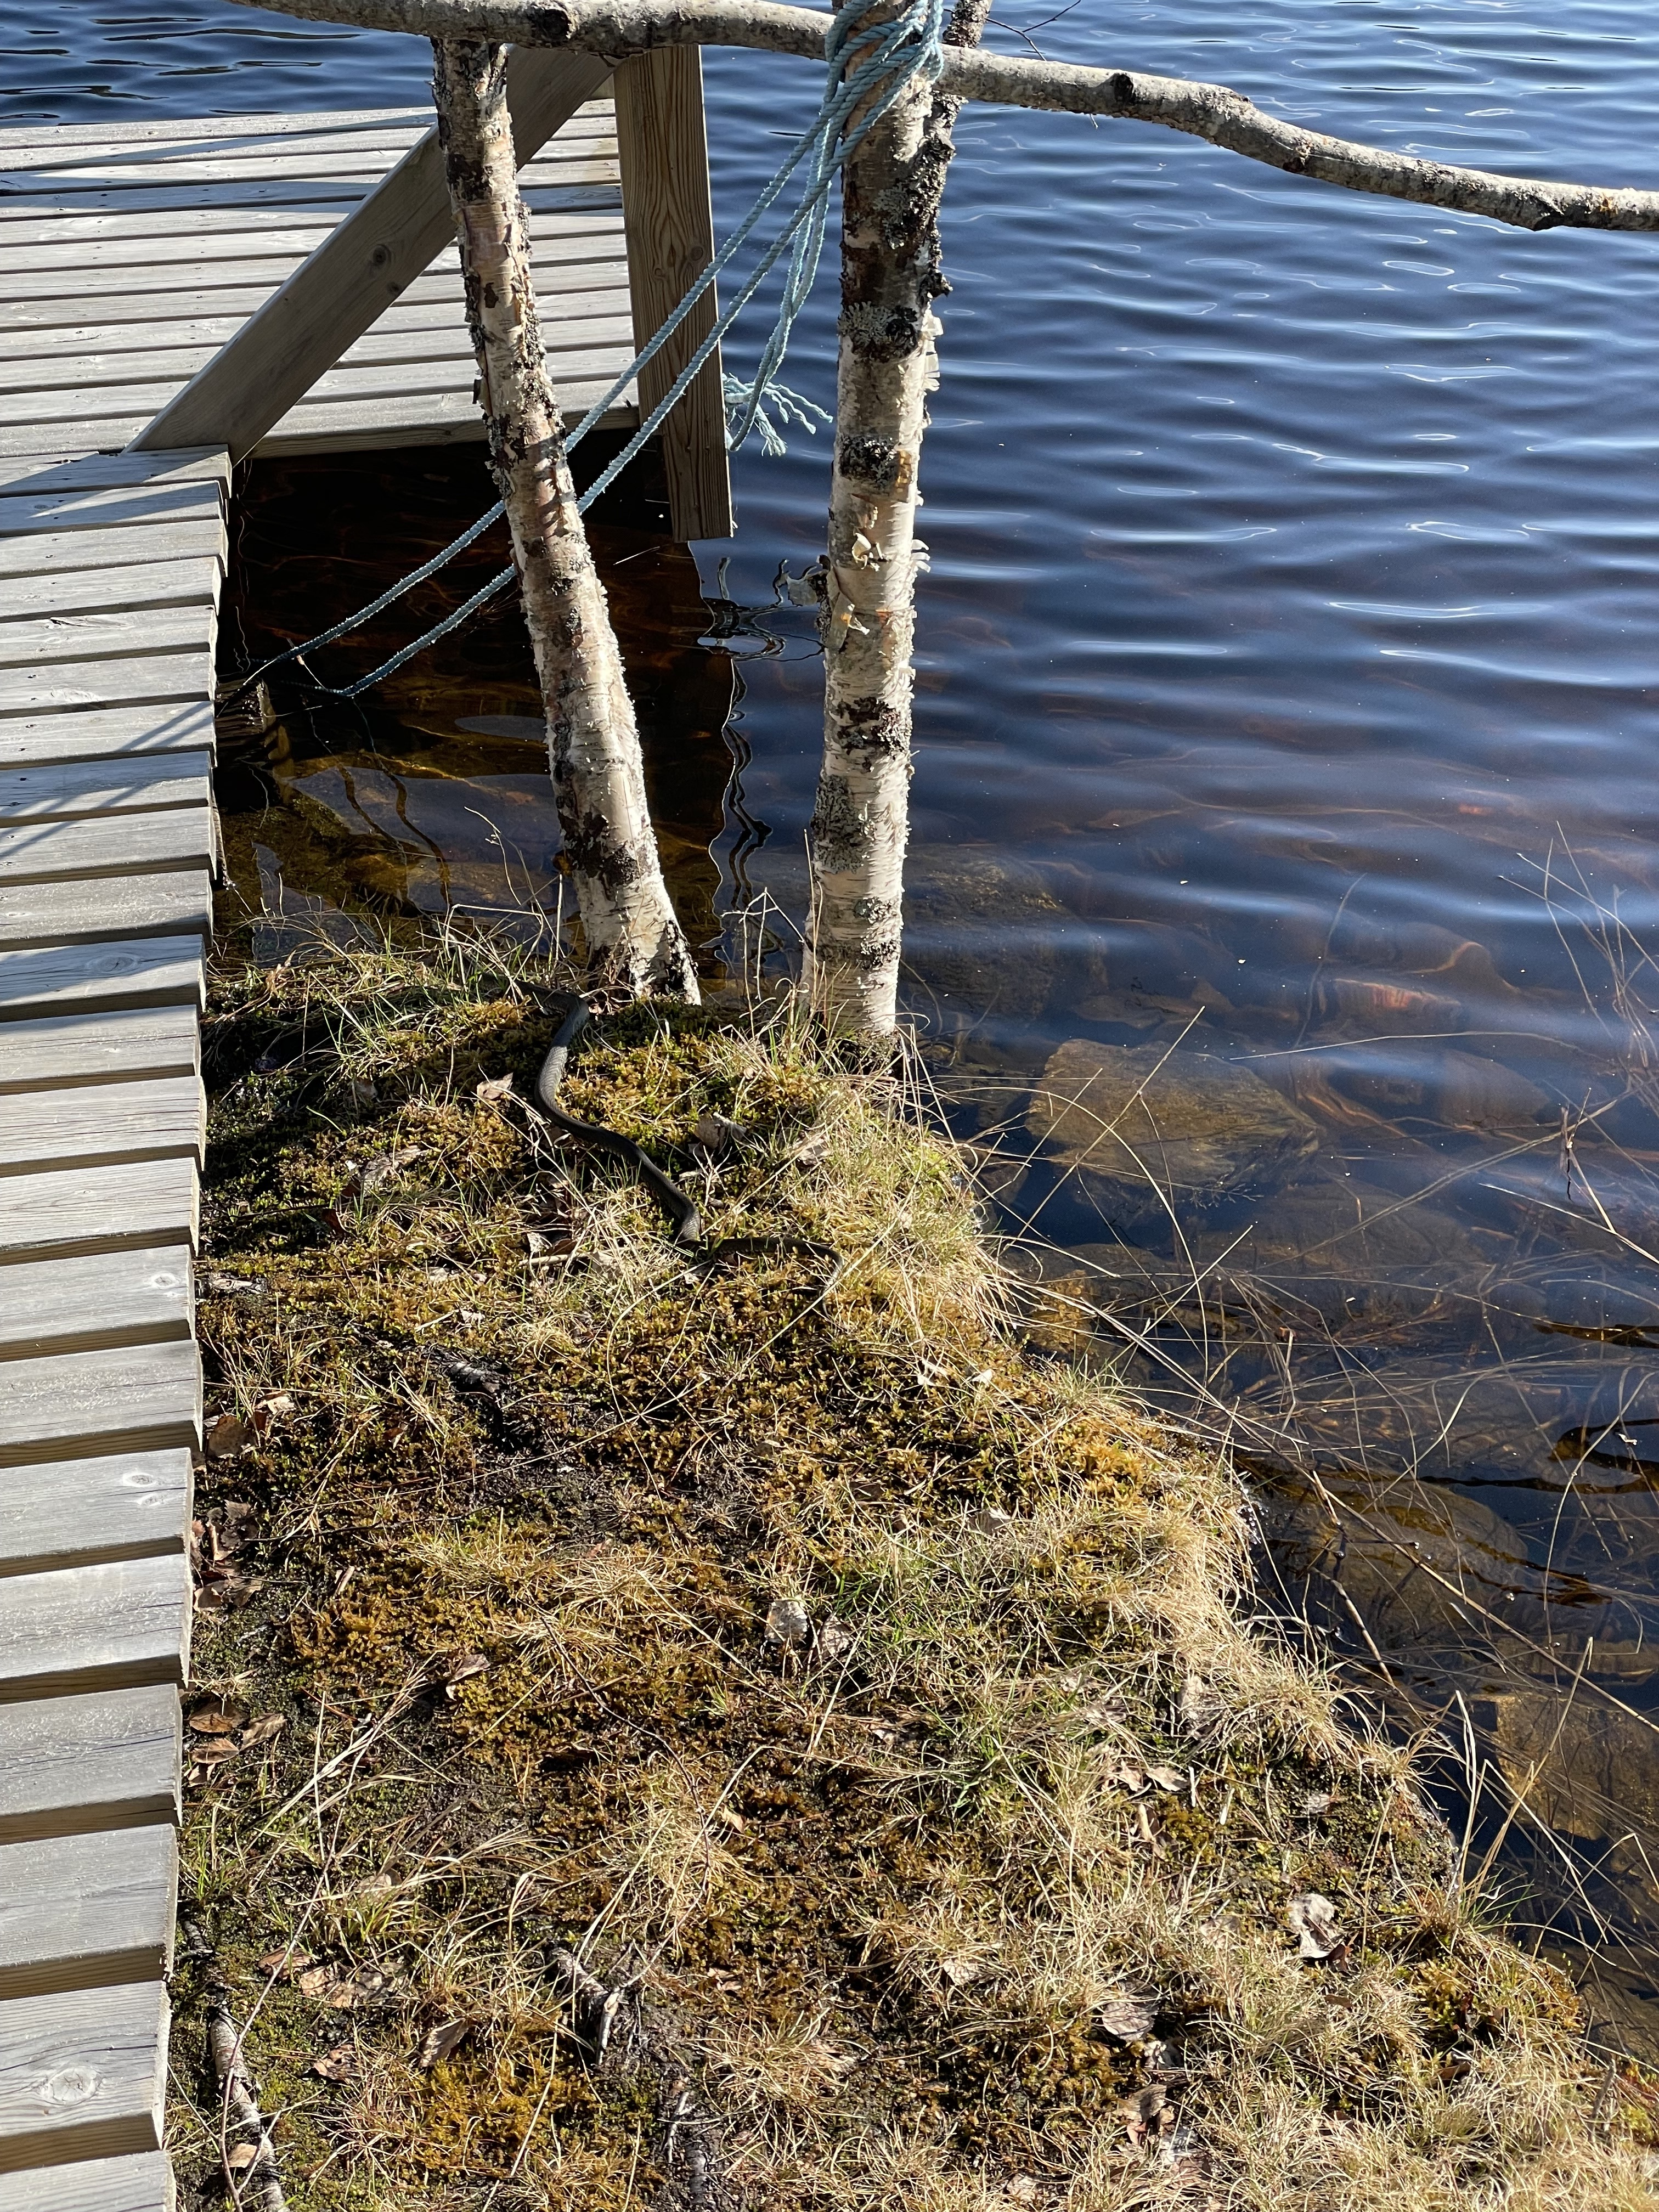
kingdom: Animalia
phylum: Chordata
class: Squamata
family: Colubridae
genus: Natrix
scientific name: Natrix natrix
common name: Grass snake
